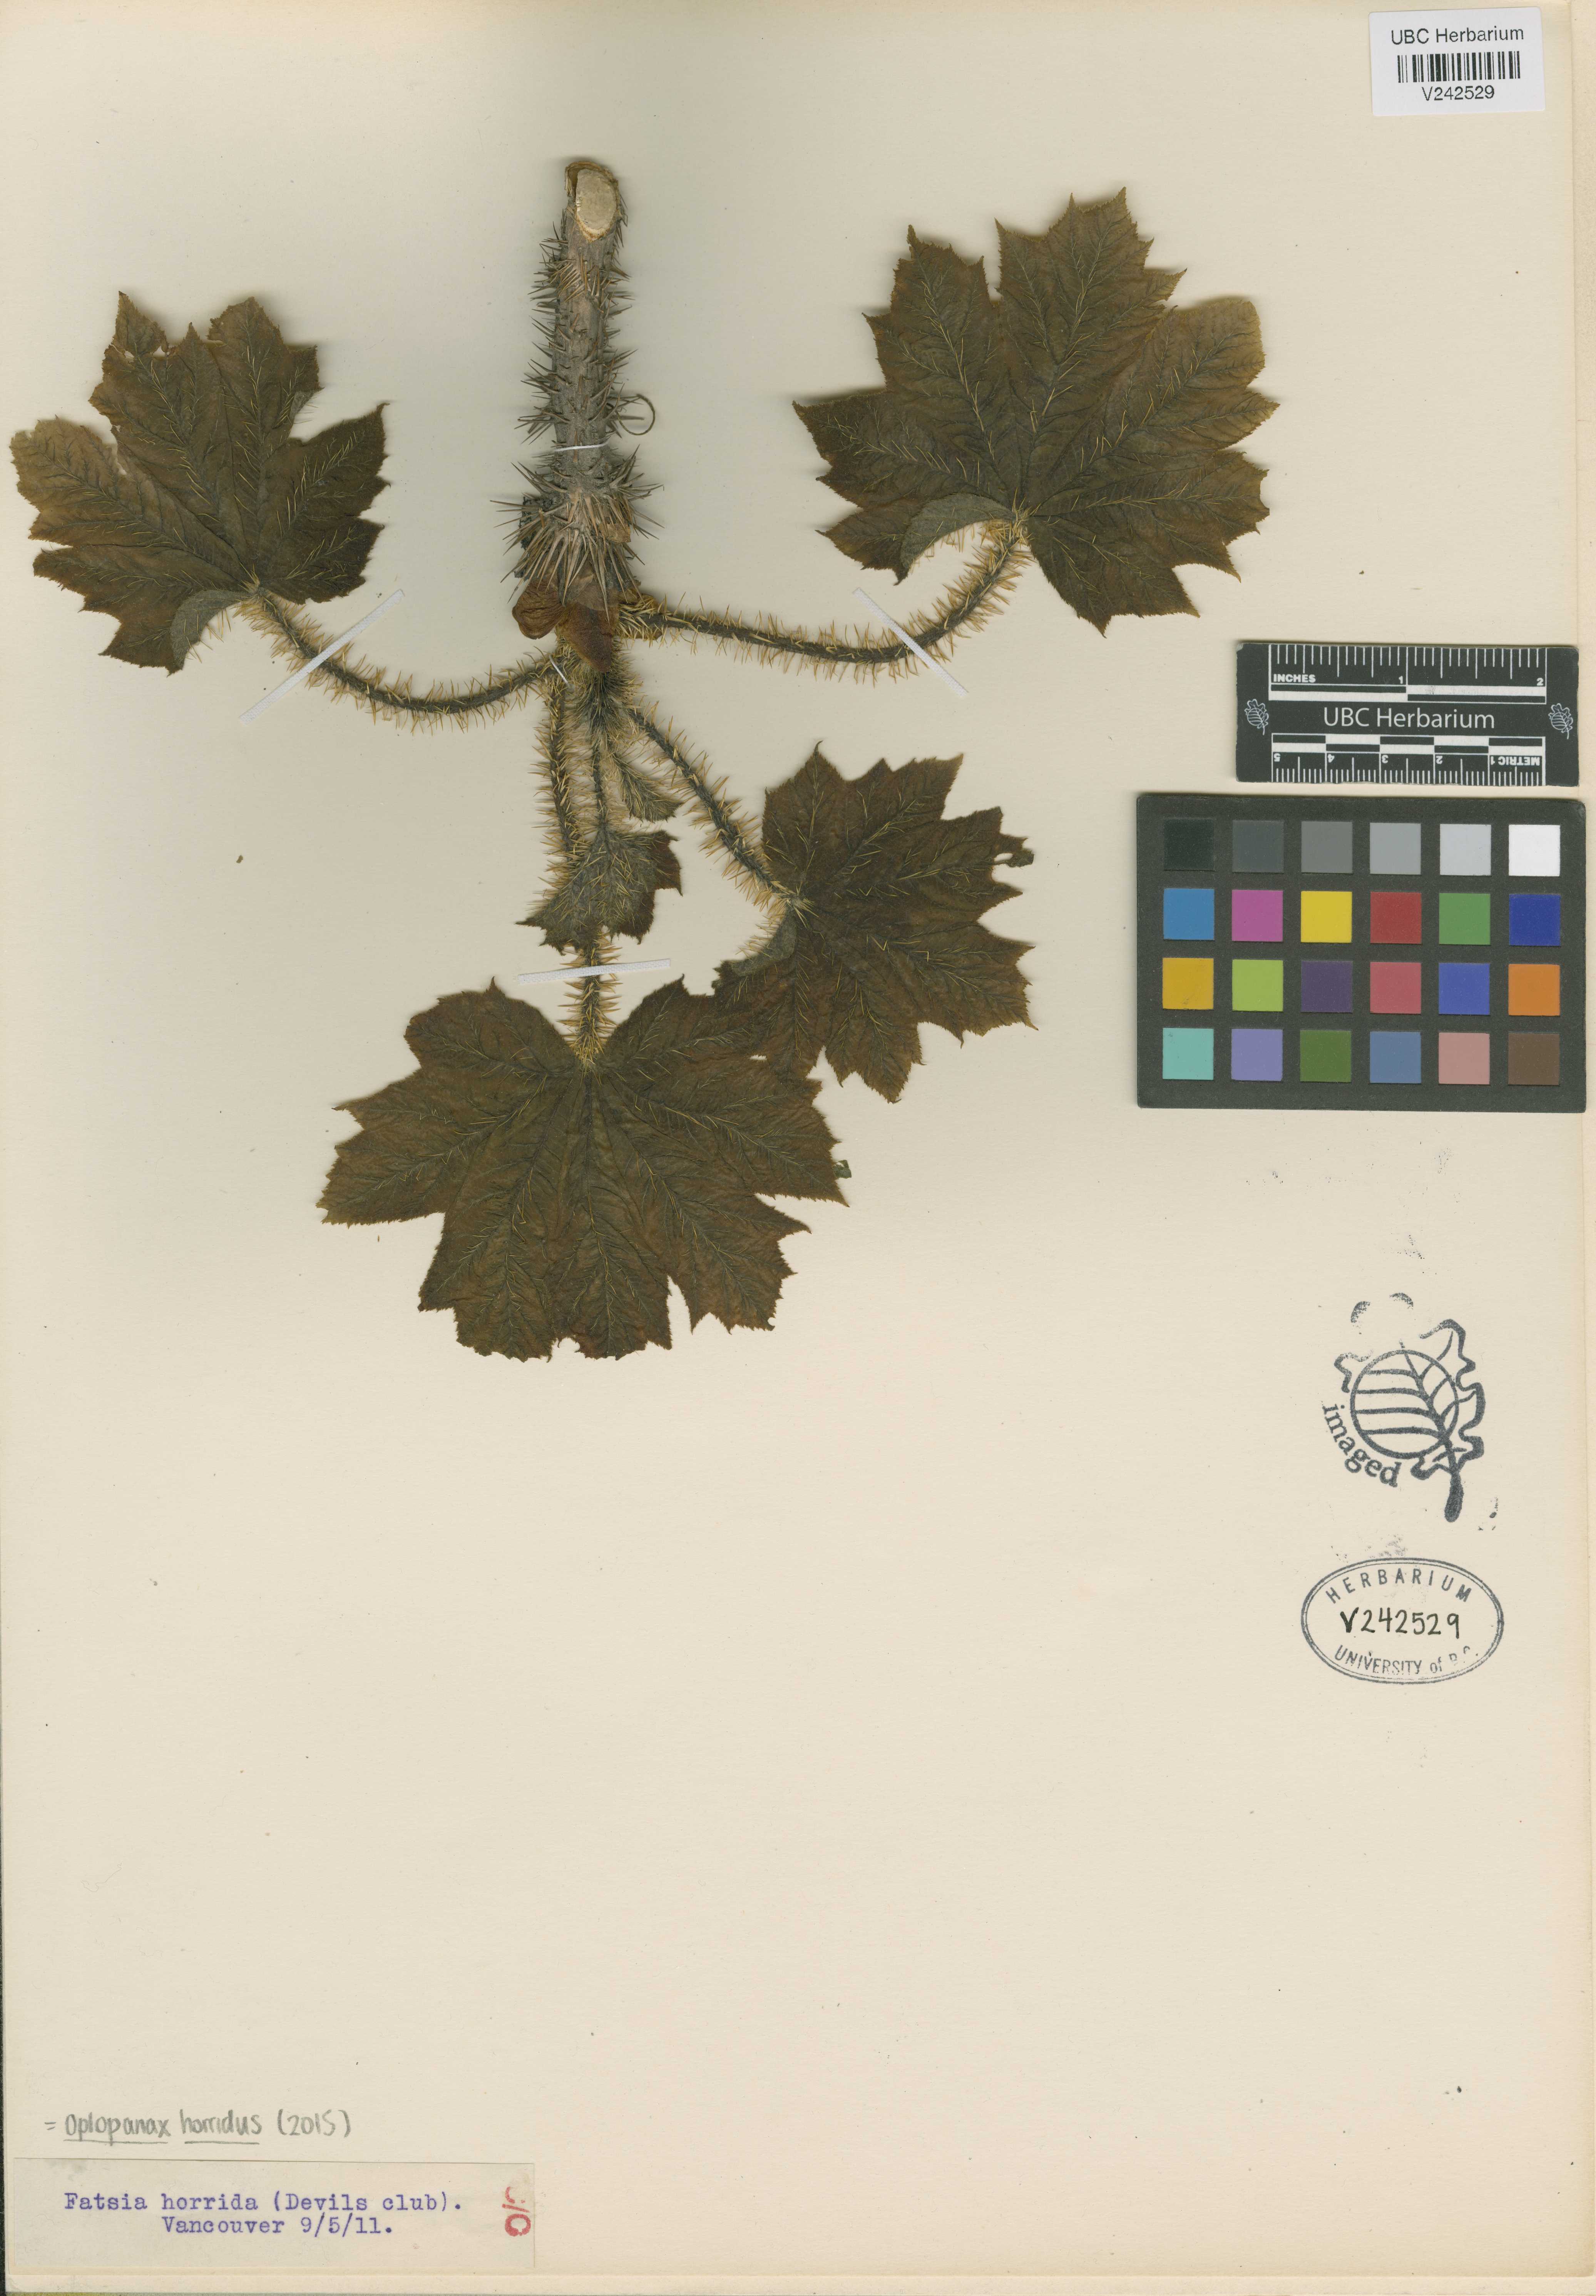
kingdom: Plantae
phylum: Tracheophyta
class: Magnoliopsida
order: Apiales
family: Araliaceae
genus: Oplopanax
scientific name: Oplopanax horridus
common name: Devil's walking-stick
